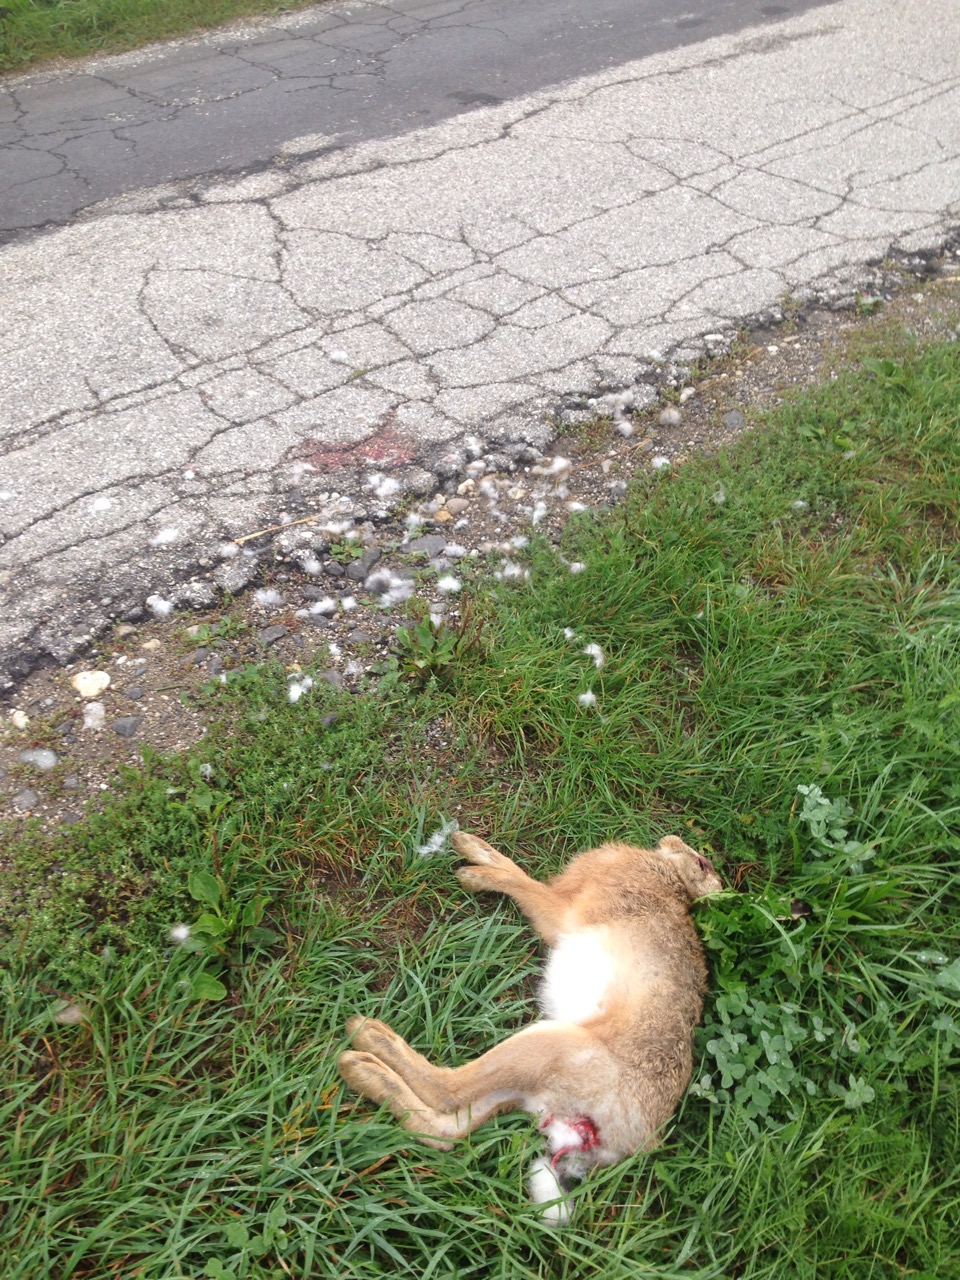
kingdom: Animalia
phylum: Chordata
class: Mammalia
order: Lagomorpha
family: Leporidae
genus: Lepus
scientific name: Lepus europaeus
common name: European hare
